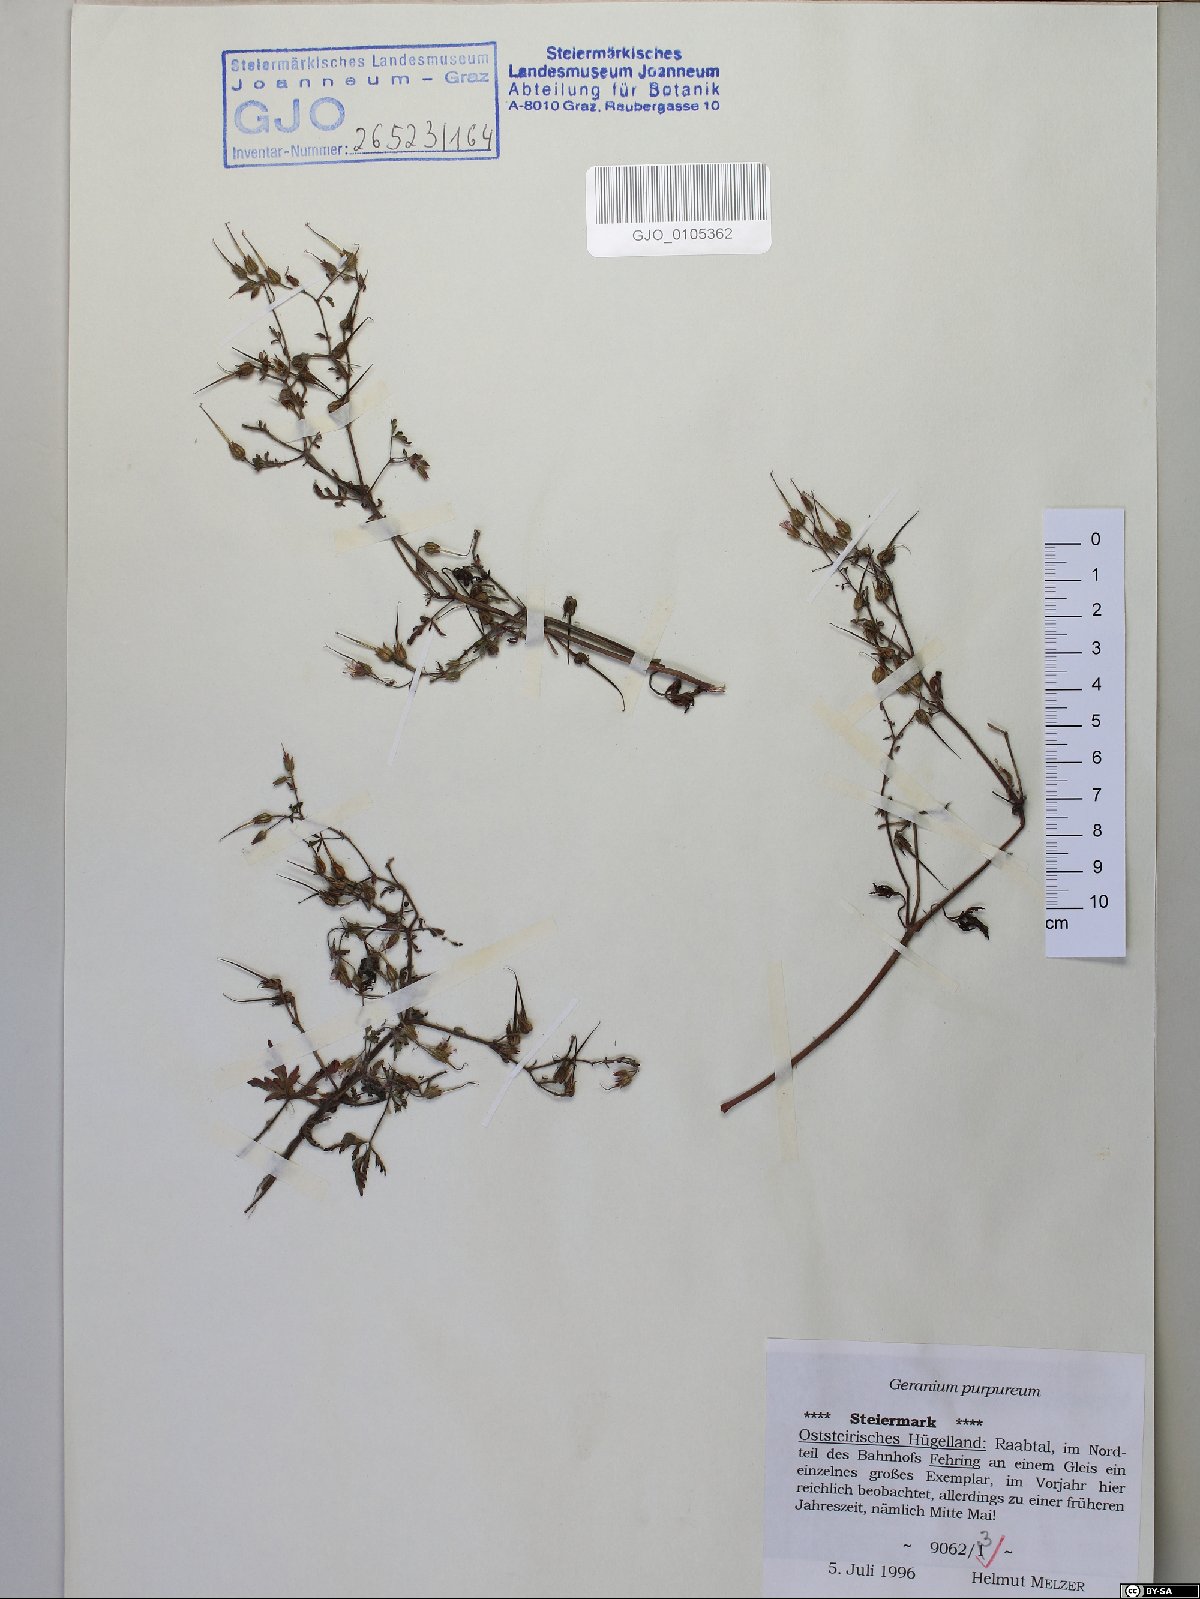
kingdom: Plantae
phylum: Tracheophyta
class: Magnoliopsida
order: Geraniales
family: Geraniaceae
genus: Geranium
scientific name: Geranium purpureum
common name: Little-robin
